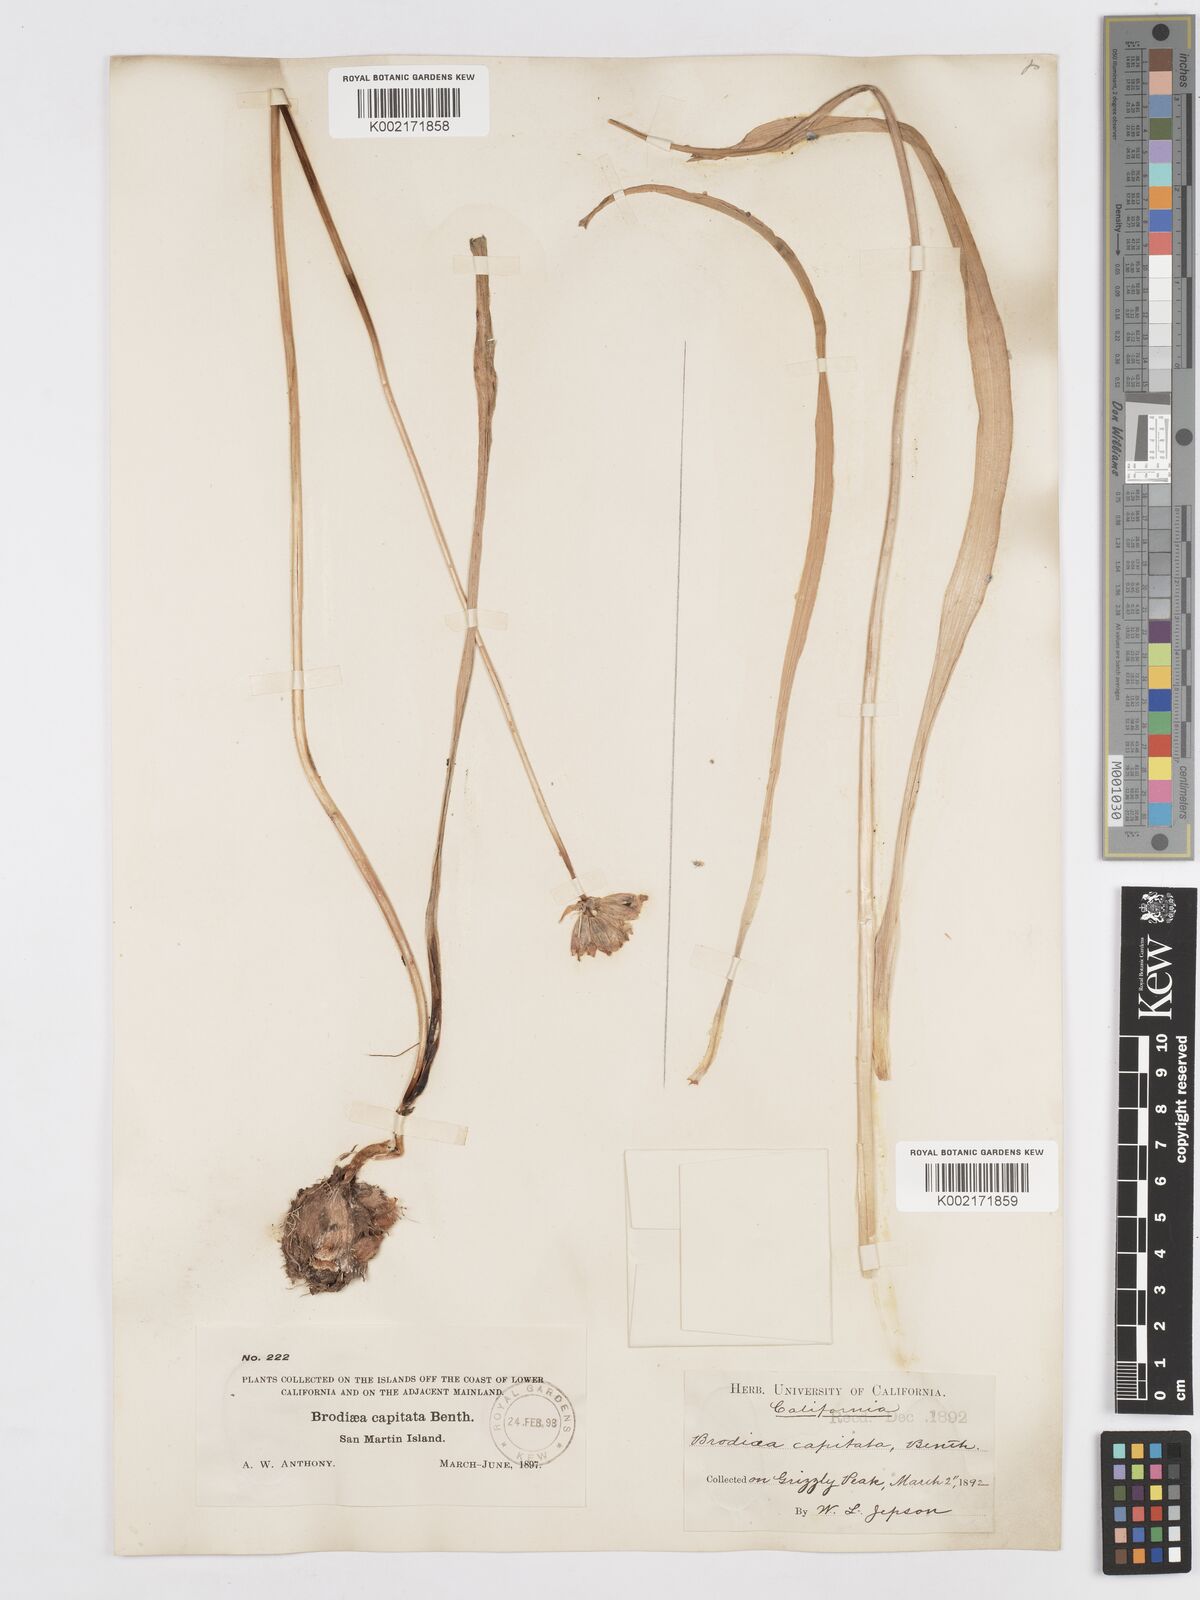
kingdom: Plantae
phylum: Tracheophyta
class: Liliopsida
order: Asparagales
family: Asparagaceae
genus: Dichelostemma
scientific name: Dichelostemma congestum
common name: Fork-tooth ookow
